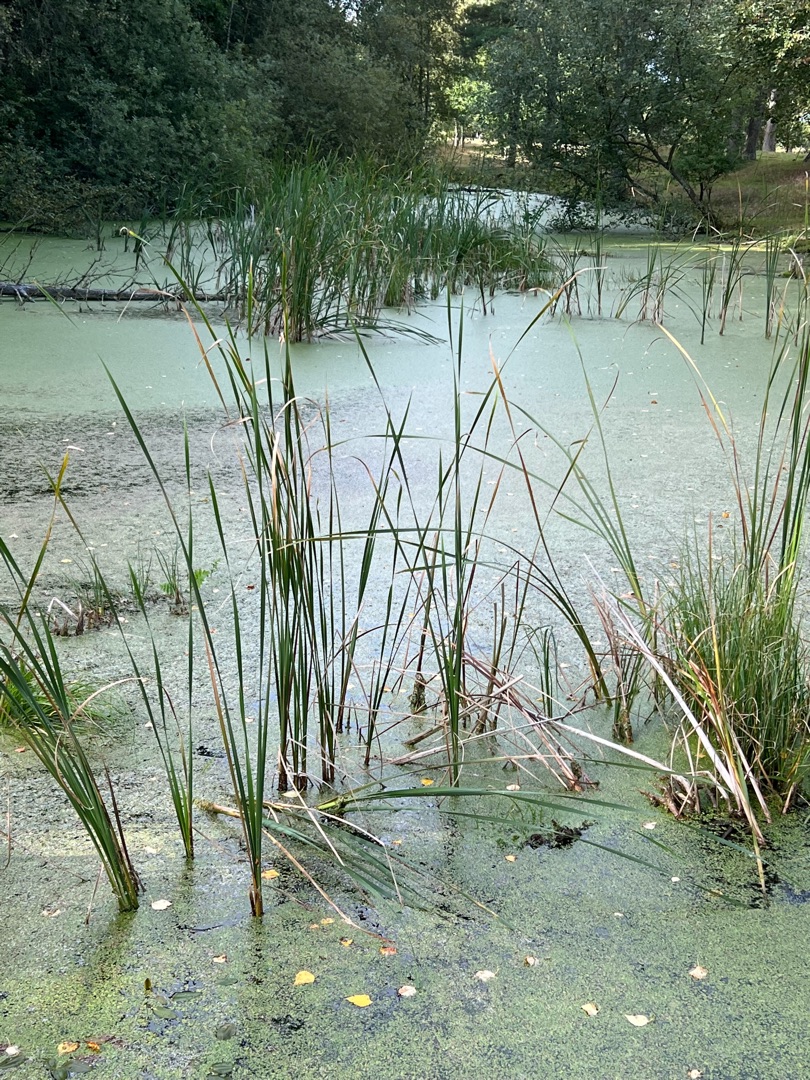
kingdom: Plantae
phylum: Tracheophyta
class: Liliopsida
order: Poales
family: Typhaceae
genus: Typha
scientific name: Typha angustifolia
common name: Smalbladet dunhammer
